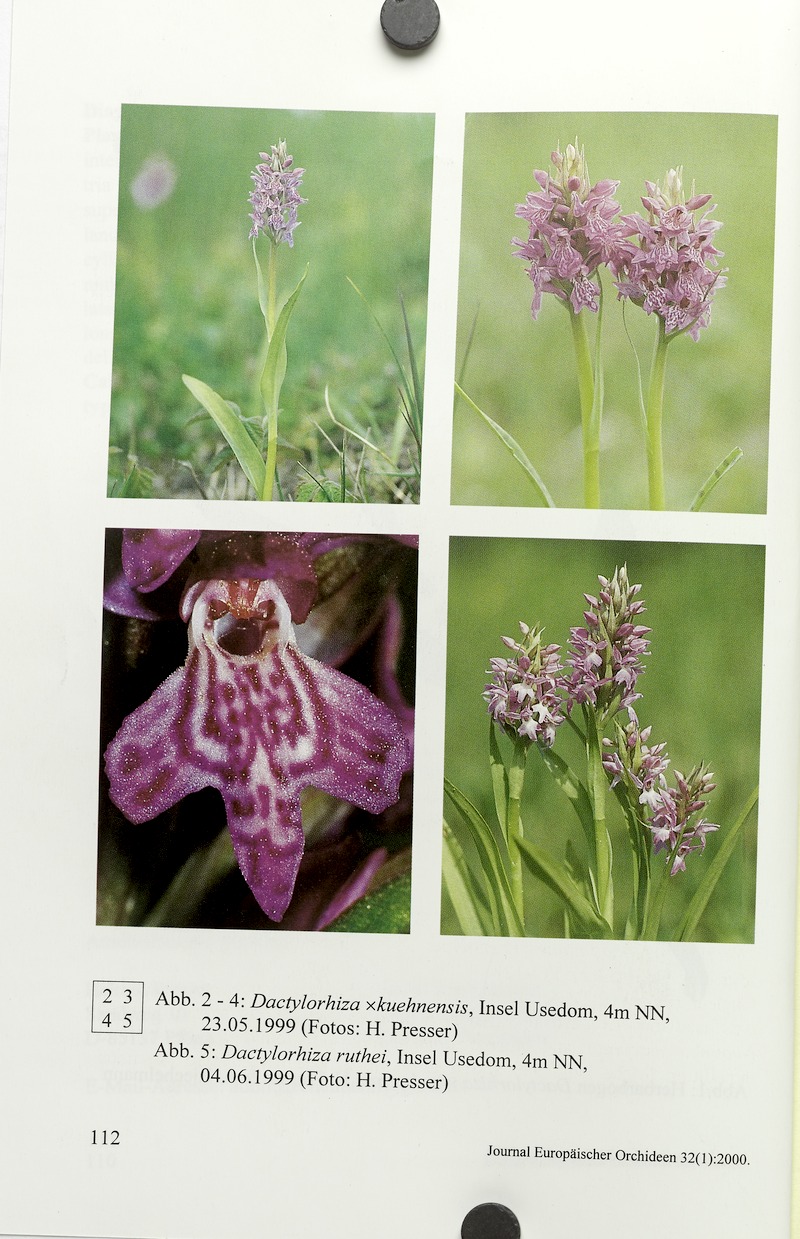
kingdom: Plantae
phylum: Tracheophyta
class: Liliopsida
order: Asparagales
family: Orchidaceae
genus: Dactylorhiza
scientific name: Dactylorhiza dufftiana
